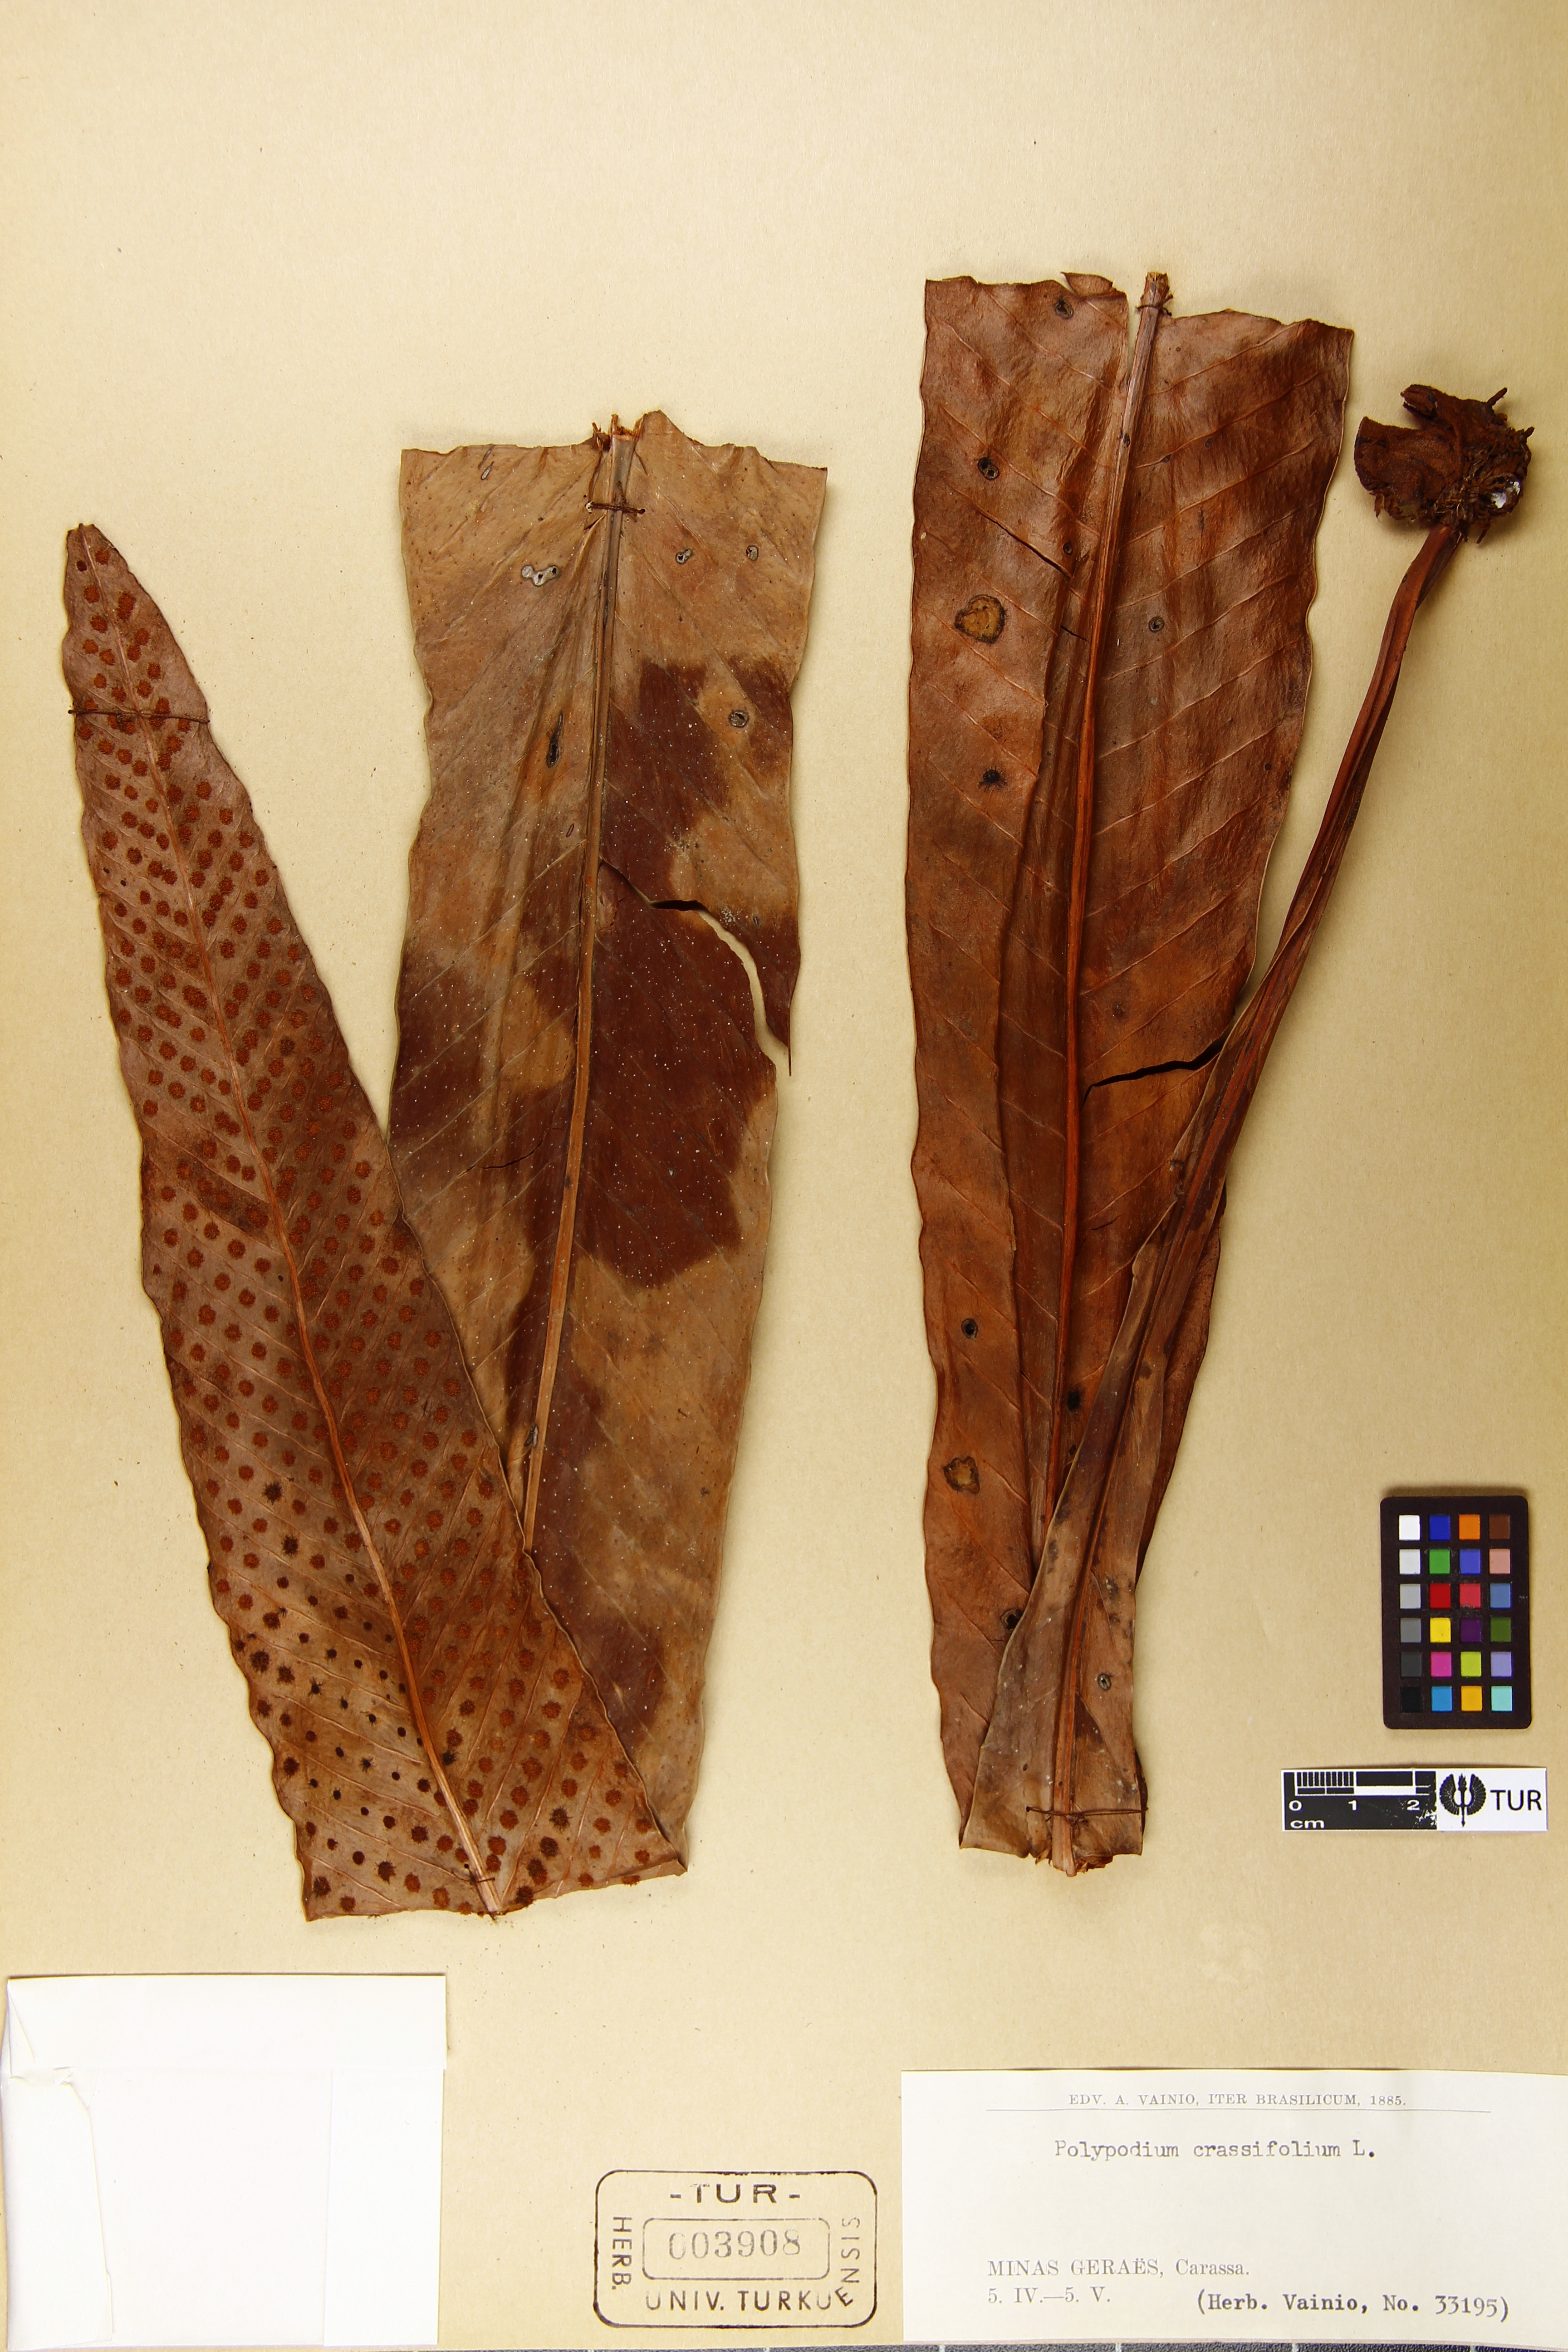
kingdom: Plantae
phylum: Tracheophyta
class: Polypodiopsida
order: Polypodiales
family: Polypodiaceae
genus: Niphidium
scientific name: Niphidium crassifolium
